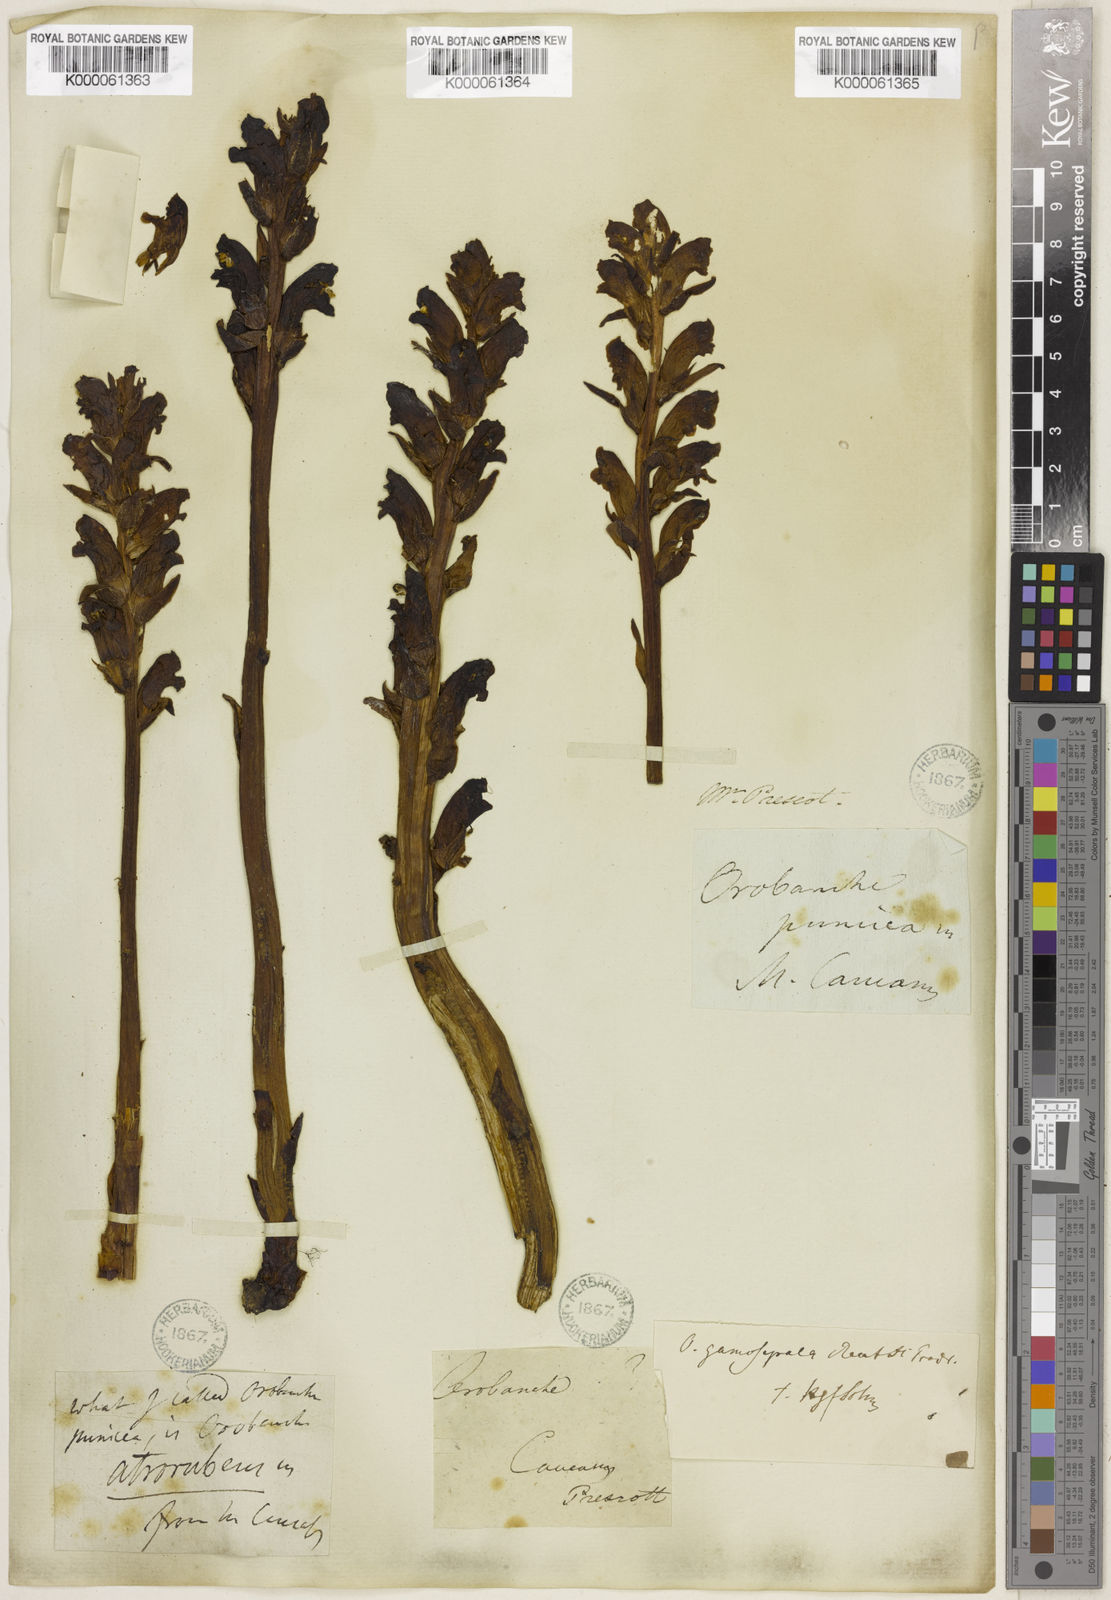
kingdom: Plantae
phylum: Tracheophyta
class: Magnoliopsida
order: Lamiales
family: Orobanchaceae
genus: Orobanche
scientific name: Orobanche gamosepala
